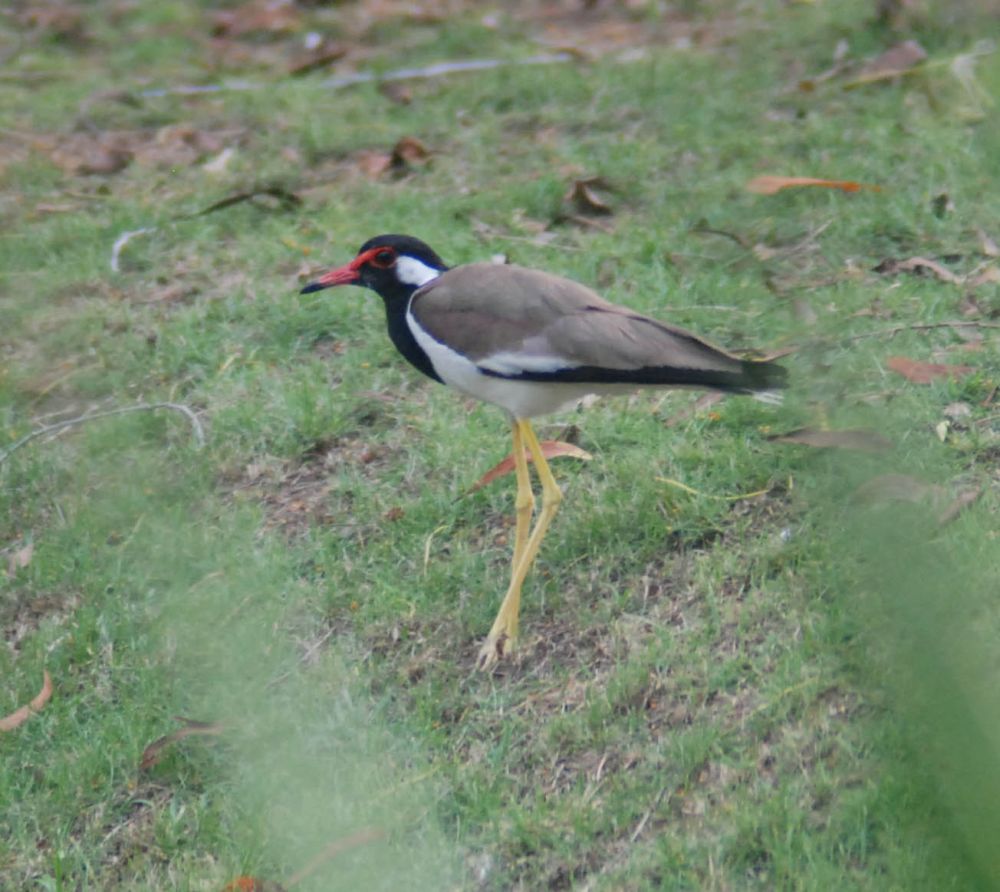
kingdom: Animalia
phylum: Chordata
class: Aves
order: Charadriiformes
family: Charadriidae
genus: Vanellus
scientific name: Vanellus indicus
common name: Red-wattled lapwing
